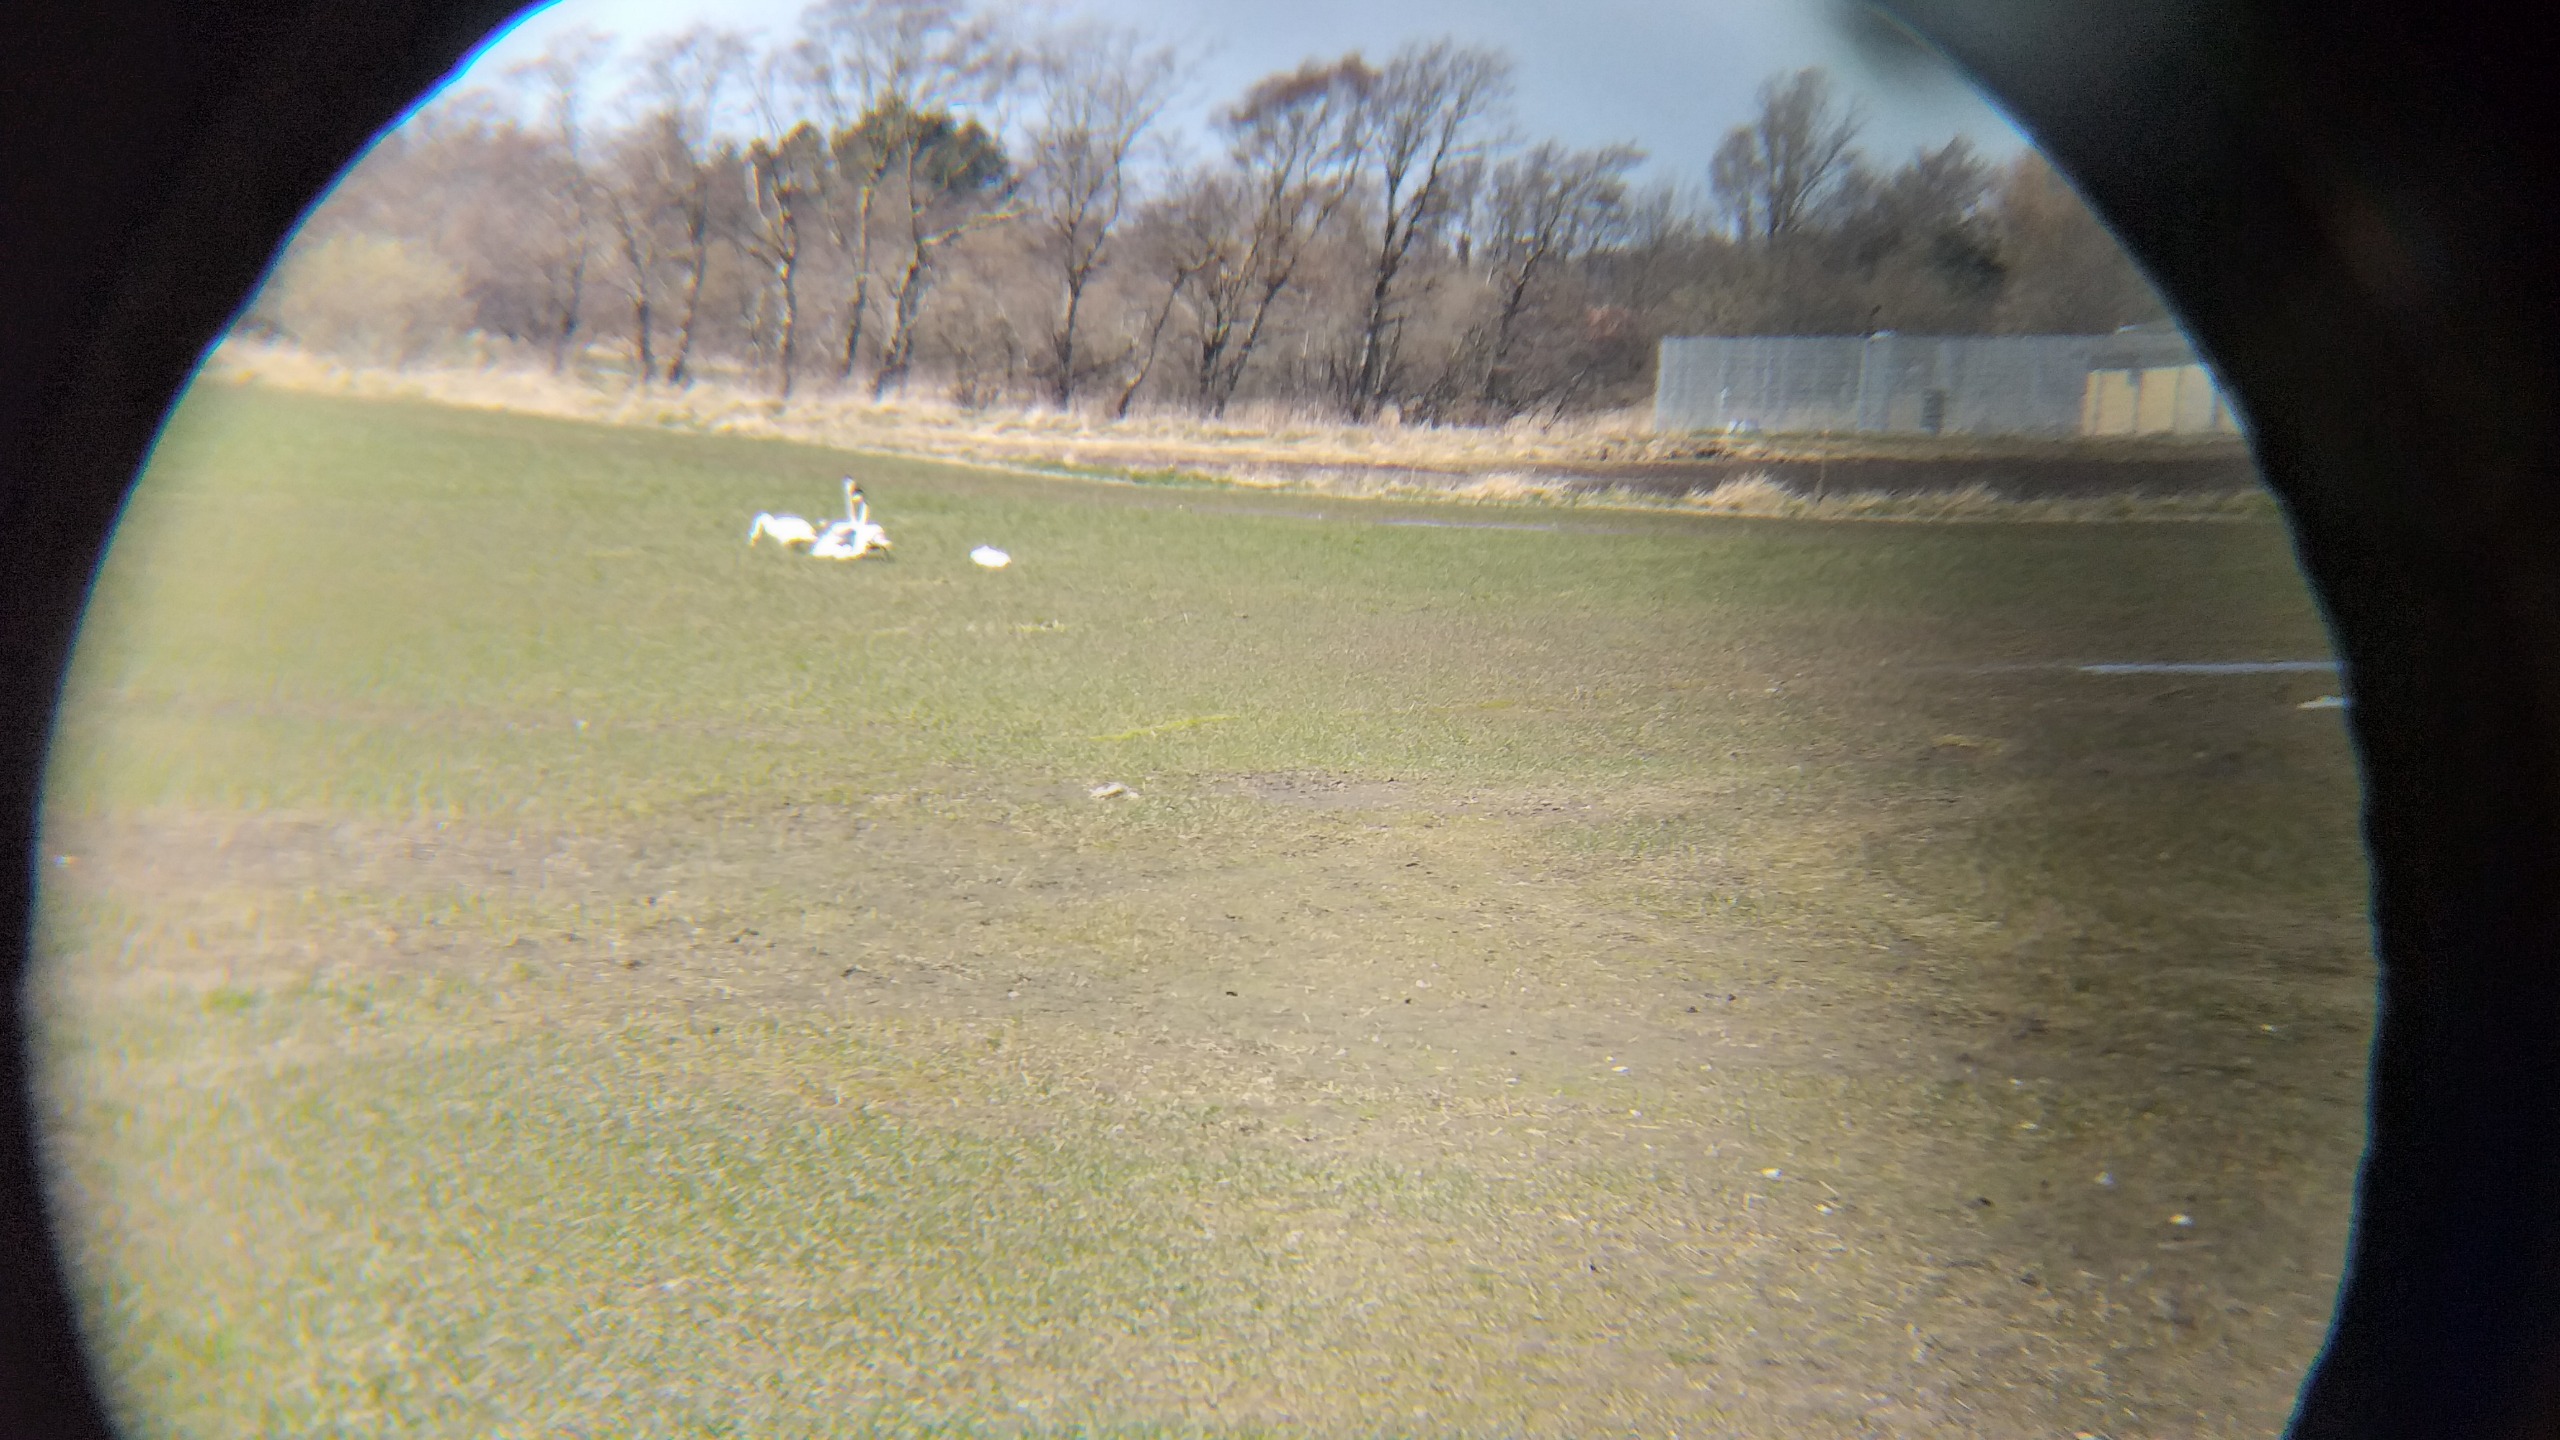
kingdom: Animalia
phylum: Chordata
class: Aves
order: Anseriformes
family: Anatidae
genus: Cygnus
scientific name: Cygnus cygnus
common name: Sangsvane
